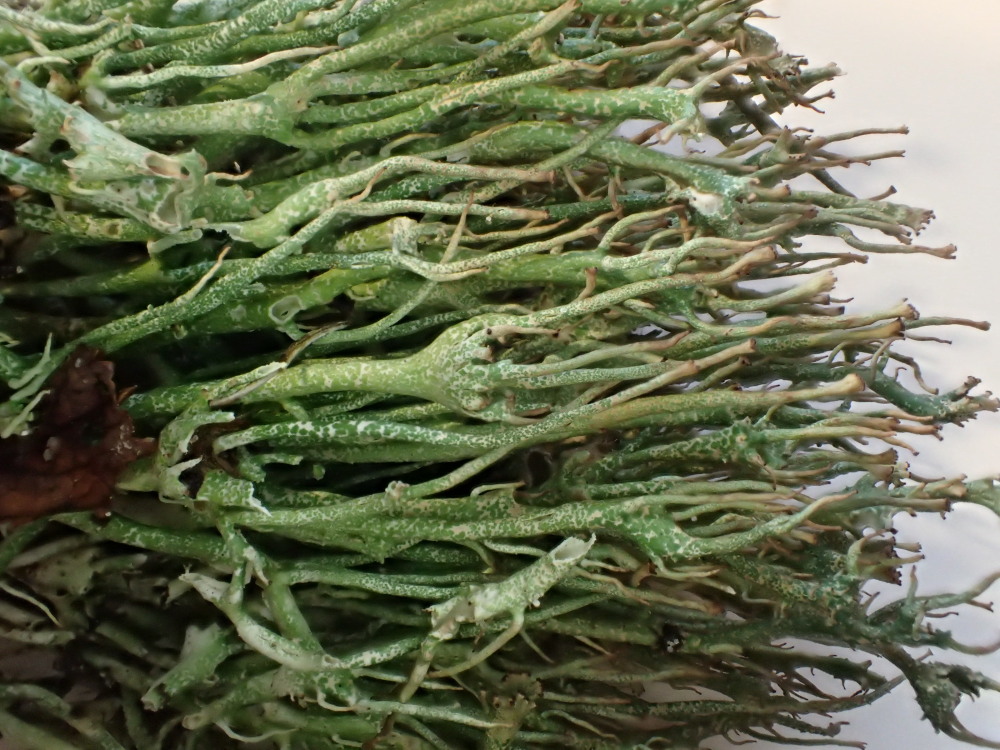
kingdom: Fungi
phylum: Ascomycota
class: Lecanoromycetes
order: Lecanorales
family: Cladoniaceae
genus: Cladonia
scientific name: Cladonia gracilis
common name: slank bægerlav
